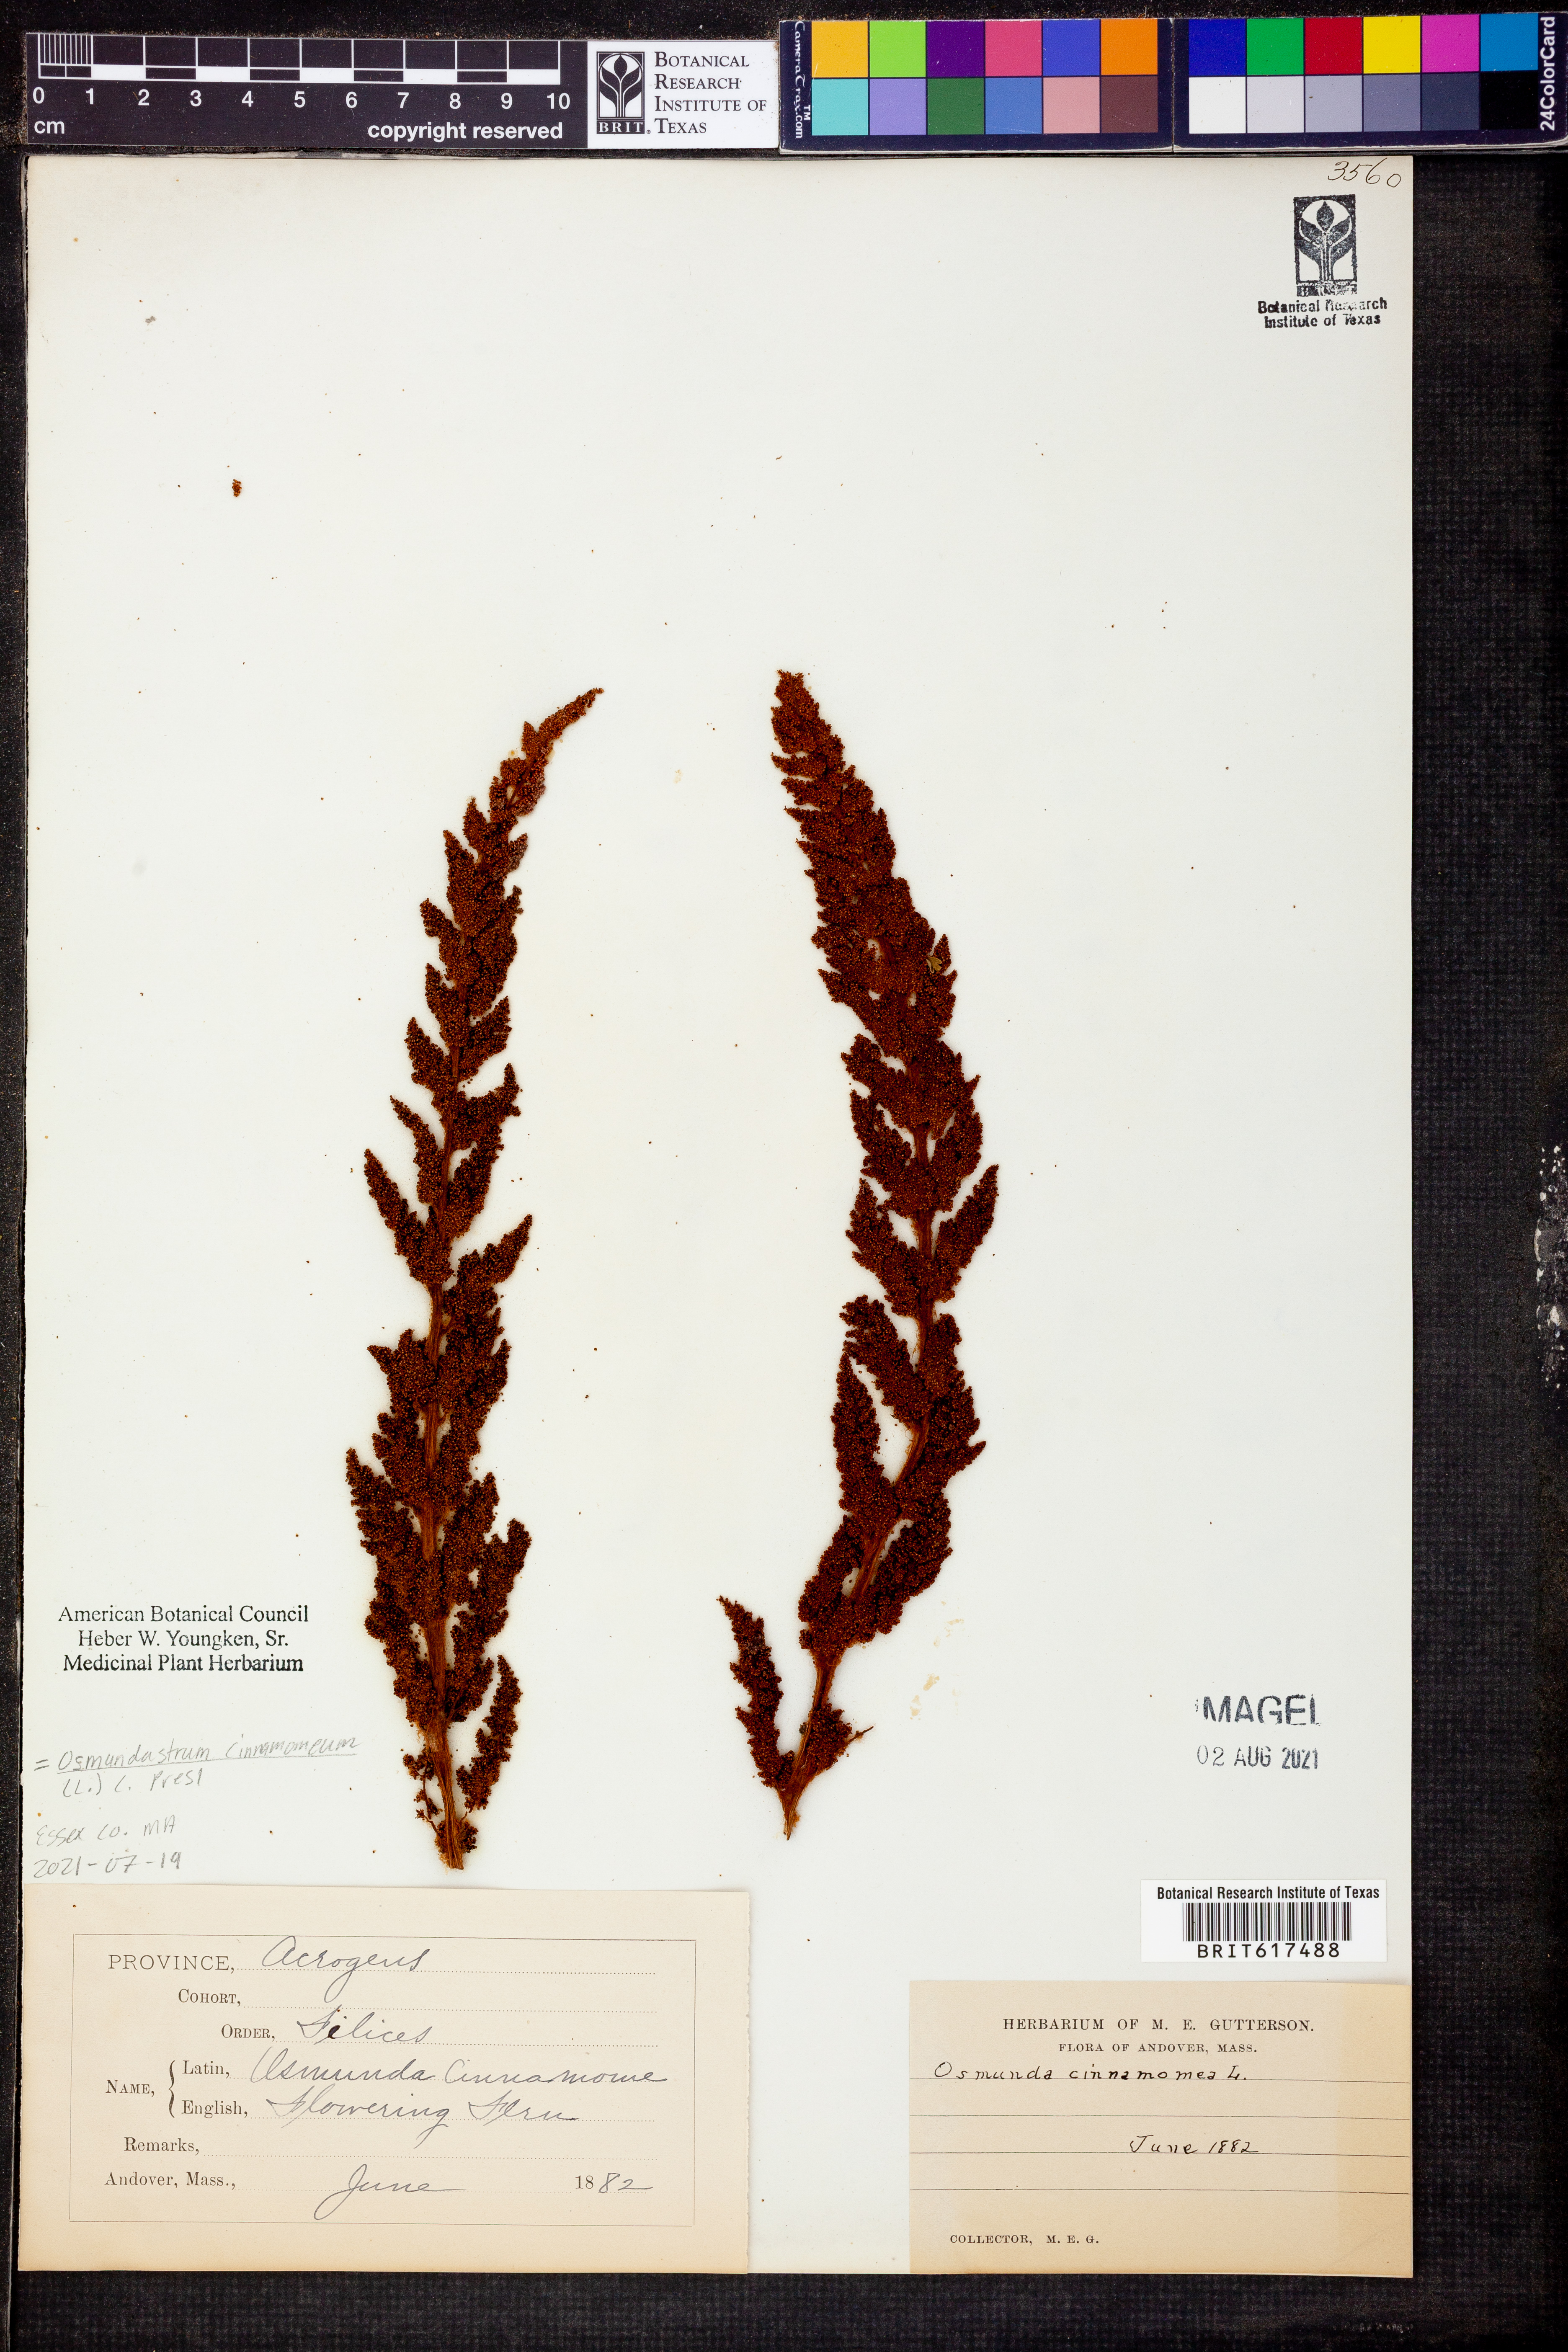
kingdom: Plantae
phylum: Tracheophyta
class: Polypodiopsida
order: Osmundales
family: Osmundaceae
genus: Osmundastrum
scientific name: Osmundastrum cinnamomeum
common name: Cinnamon fern
